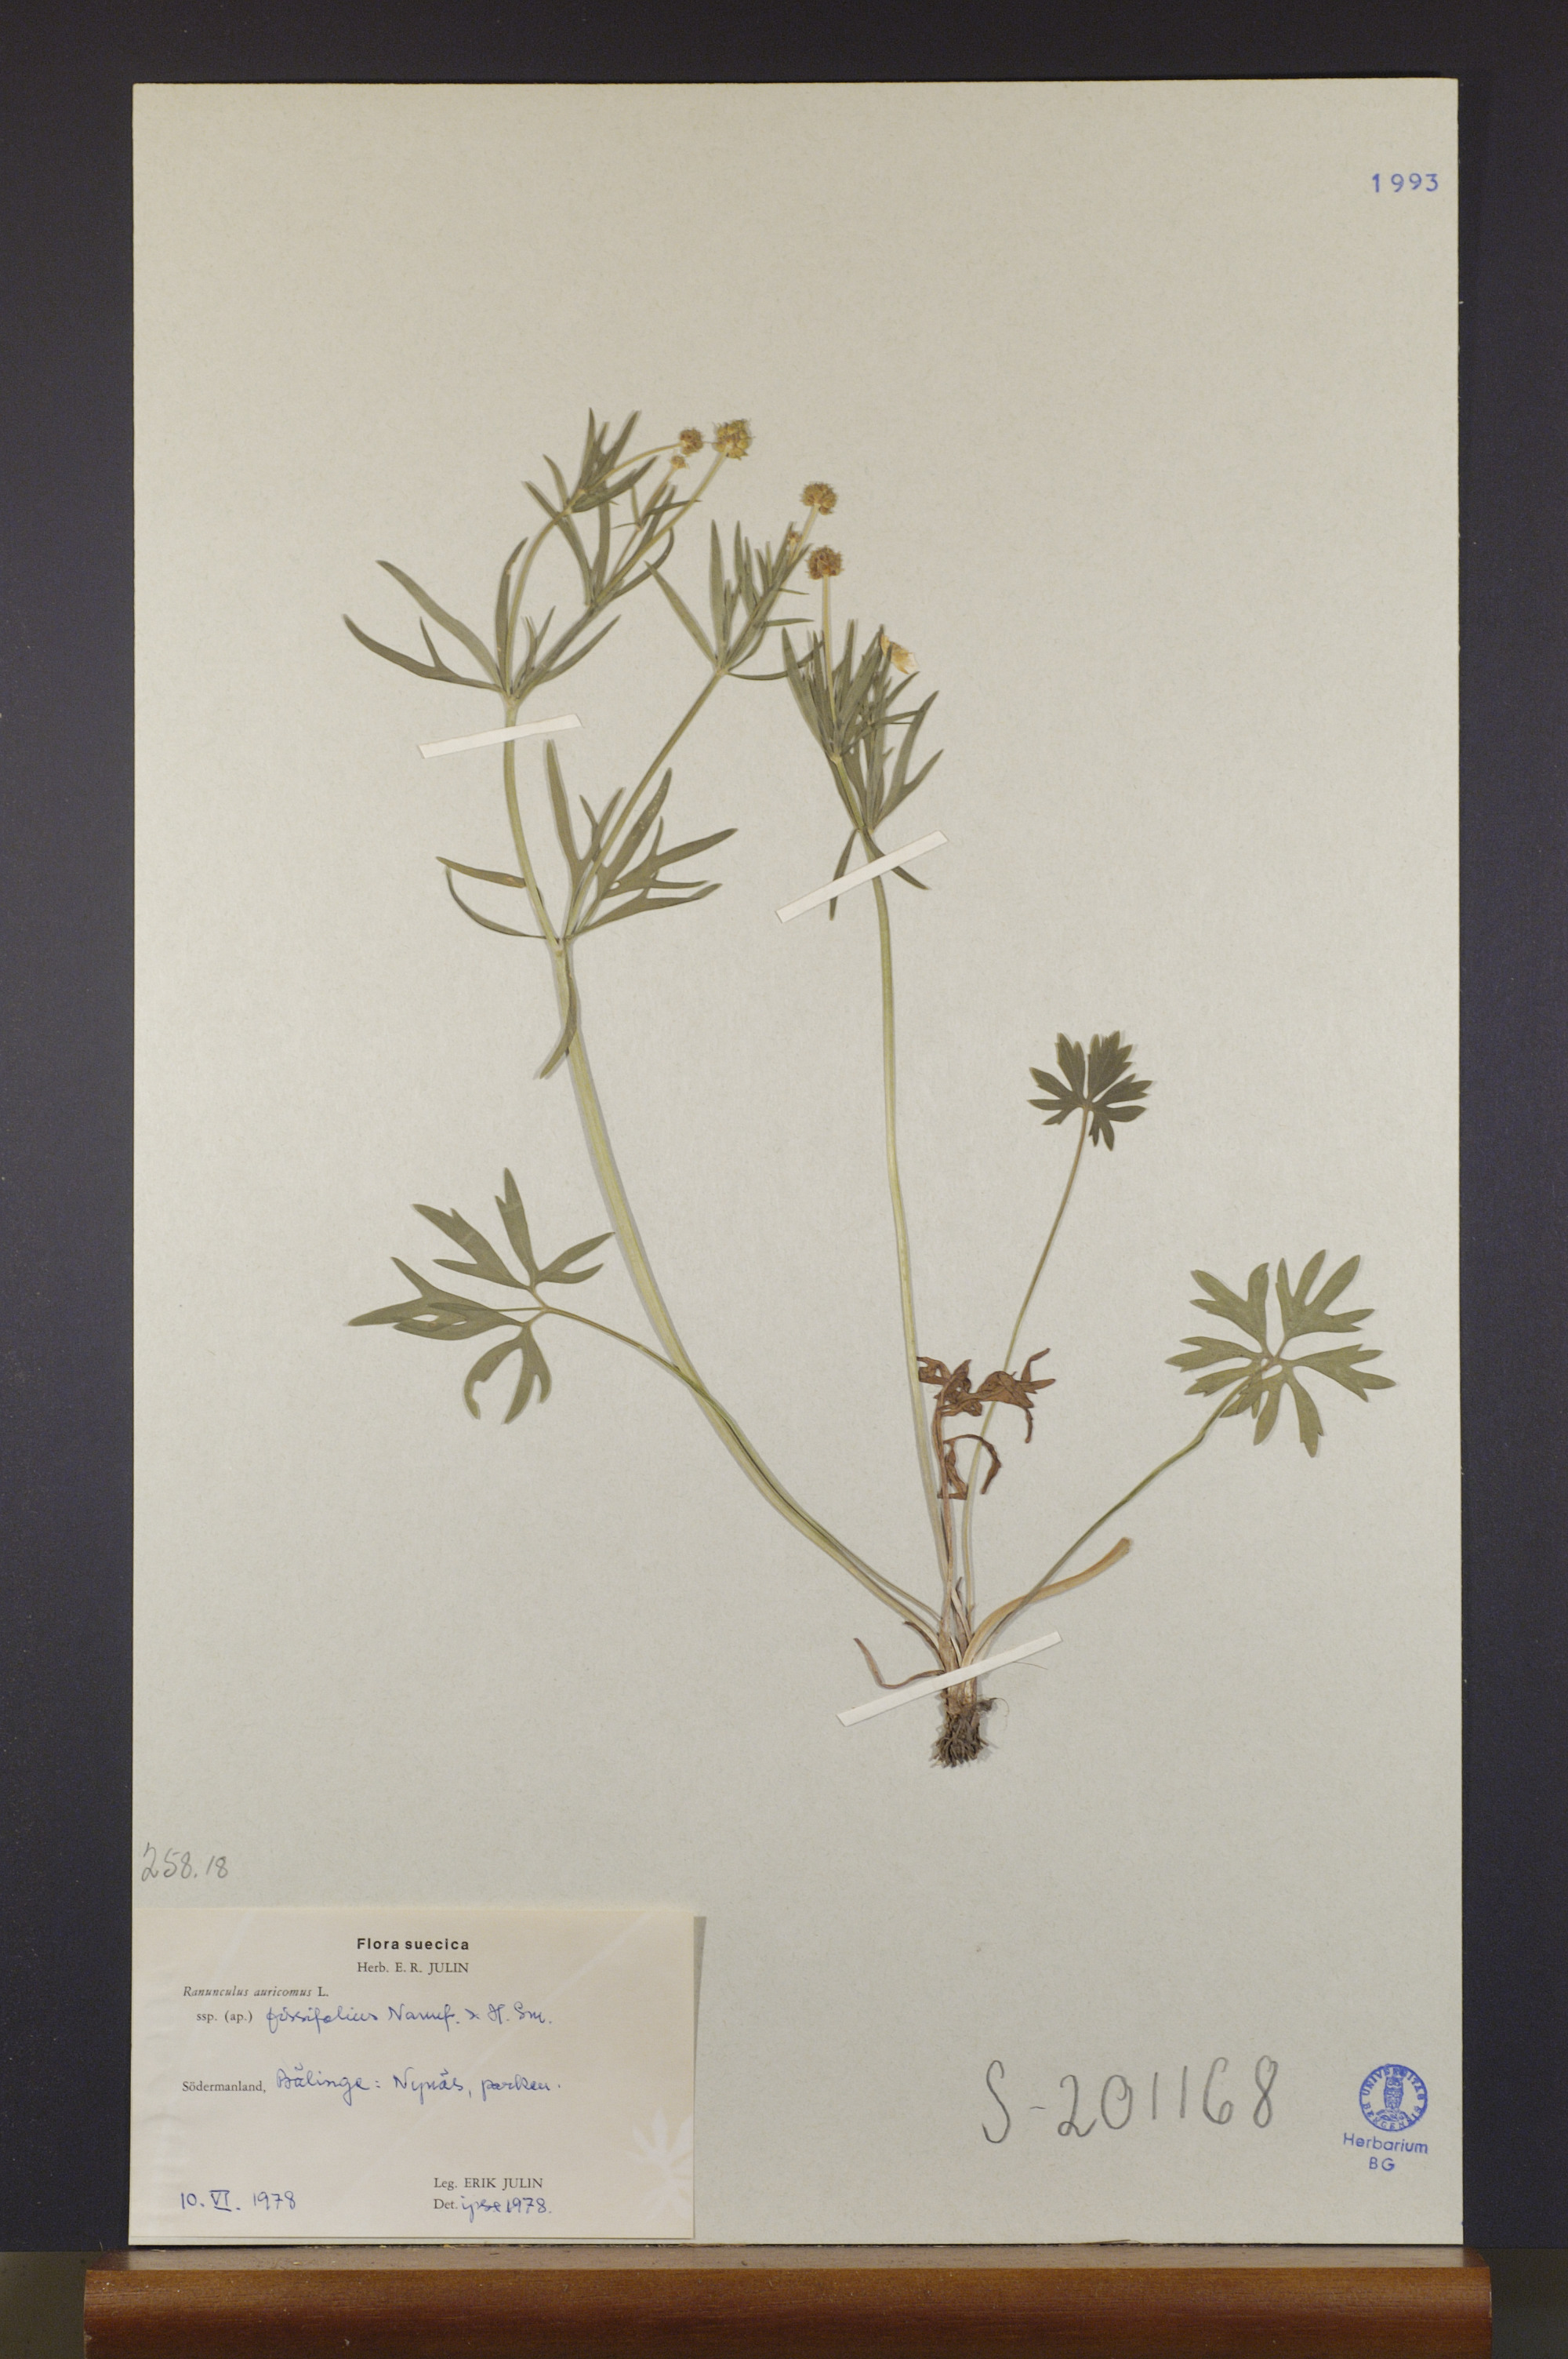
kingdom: Plantae
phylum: Tracheophyta
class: Magnoliopsida
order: Ranunculales
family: Ranunculaceae
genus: Ranunculus
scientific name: Ranunculus fissifolius
